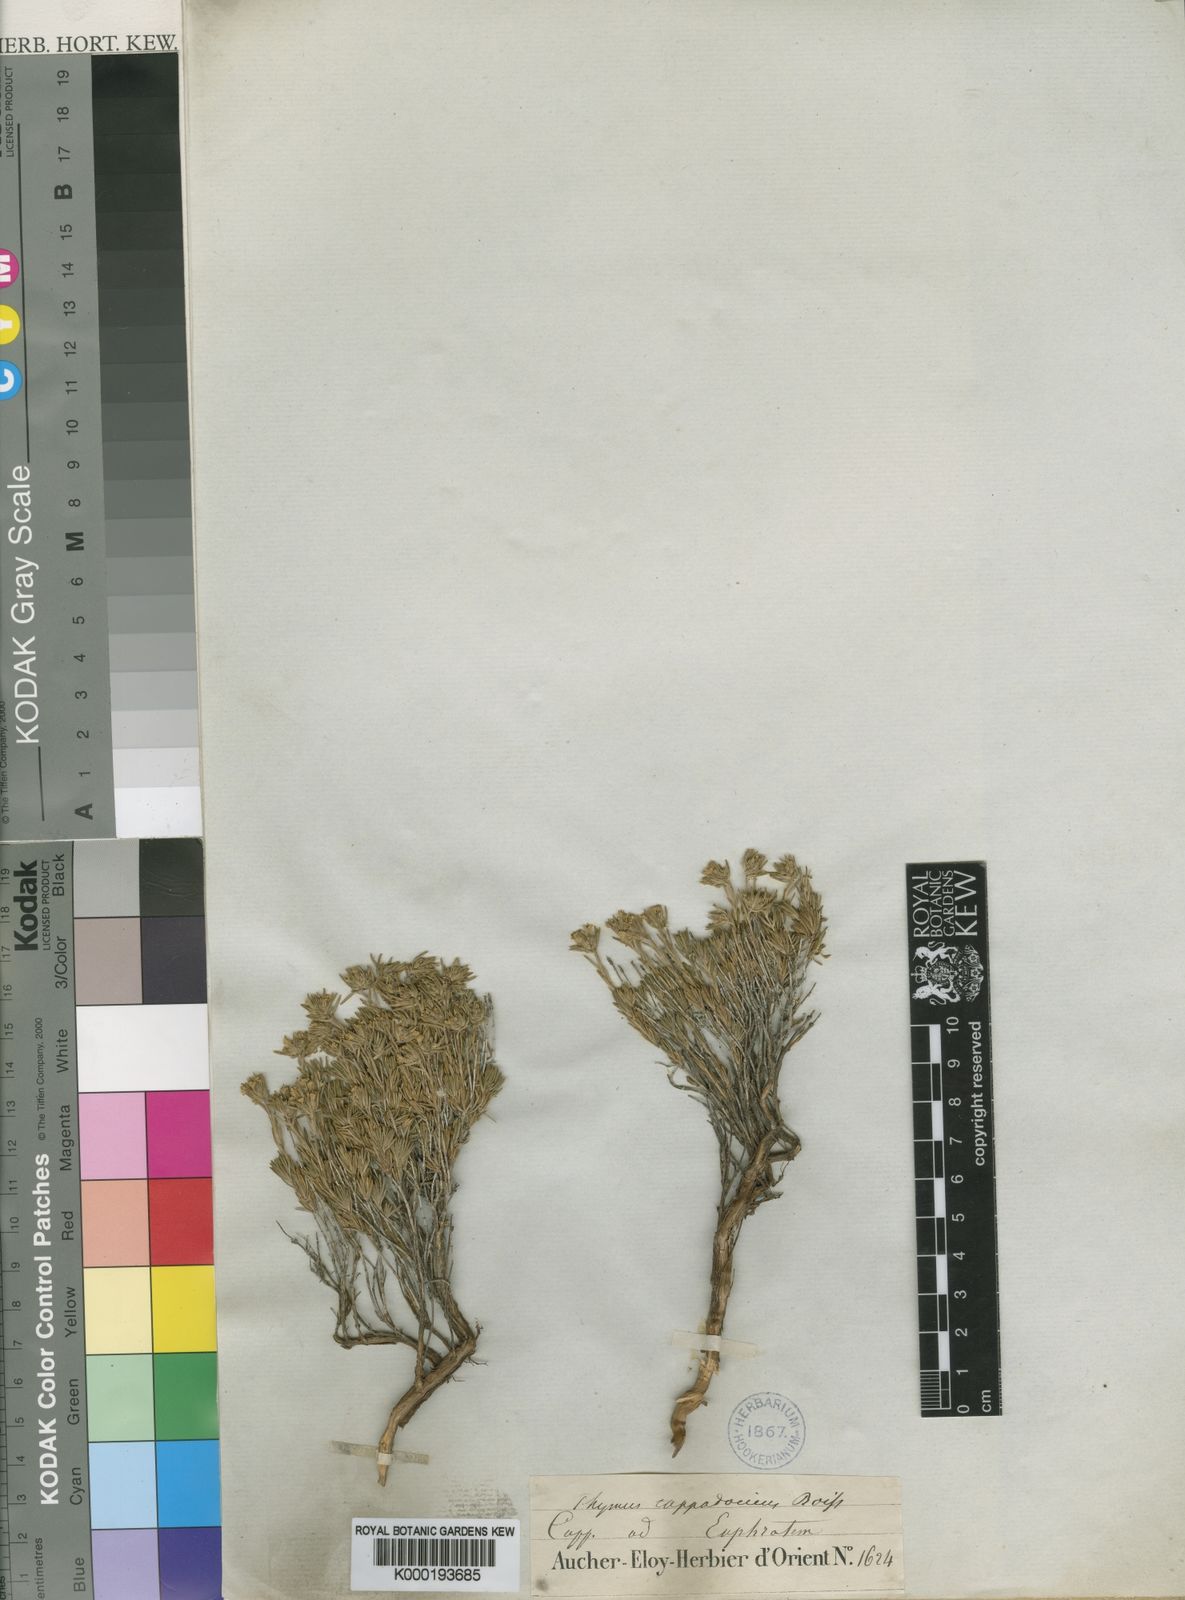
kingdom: Plantae
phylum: Tracheophyta
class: Magnoliopsida
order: Lamiales
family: Lamiaceae
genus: Thymus
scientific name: Thymus cappadocicus
